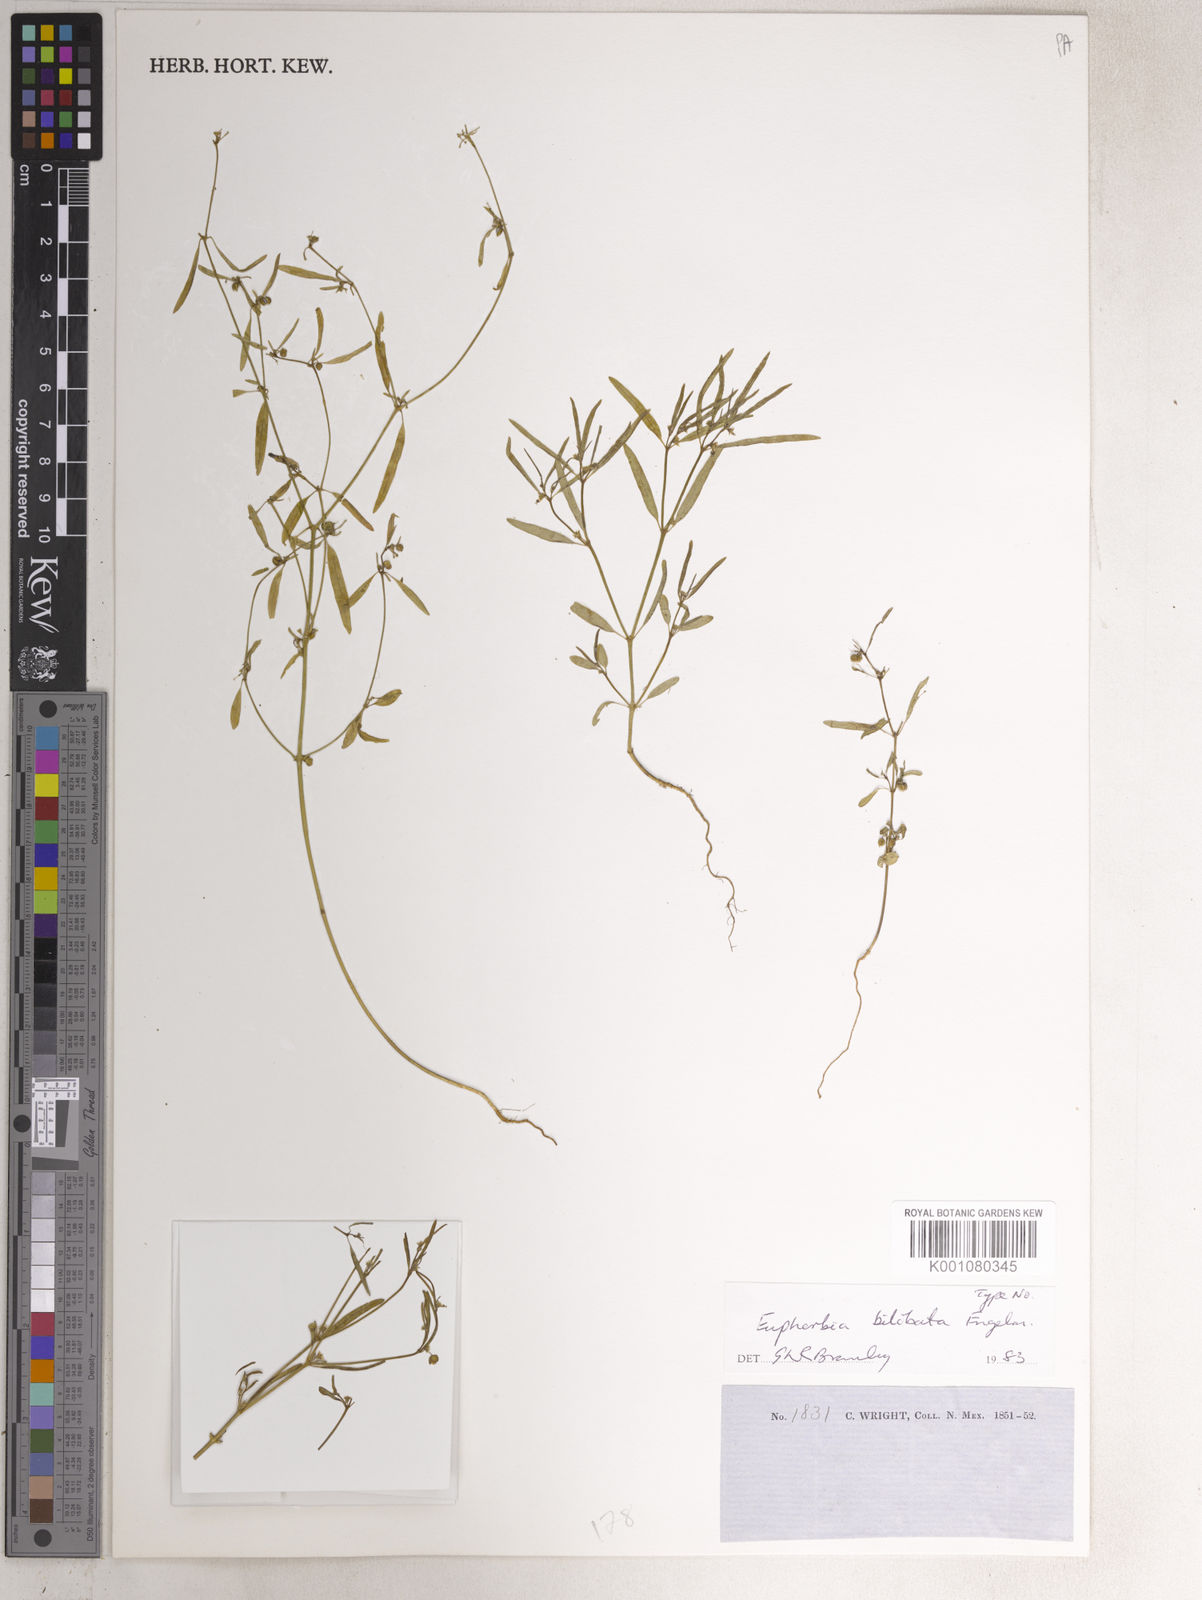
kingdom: Plantae
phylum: Tracheophyta
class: Magnoliopsida
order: Malpighiales
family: Euphorbiaceae
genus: Euphorbia
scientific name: Euphorbia bilobata
